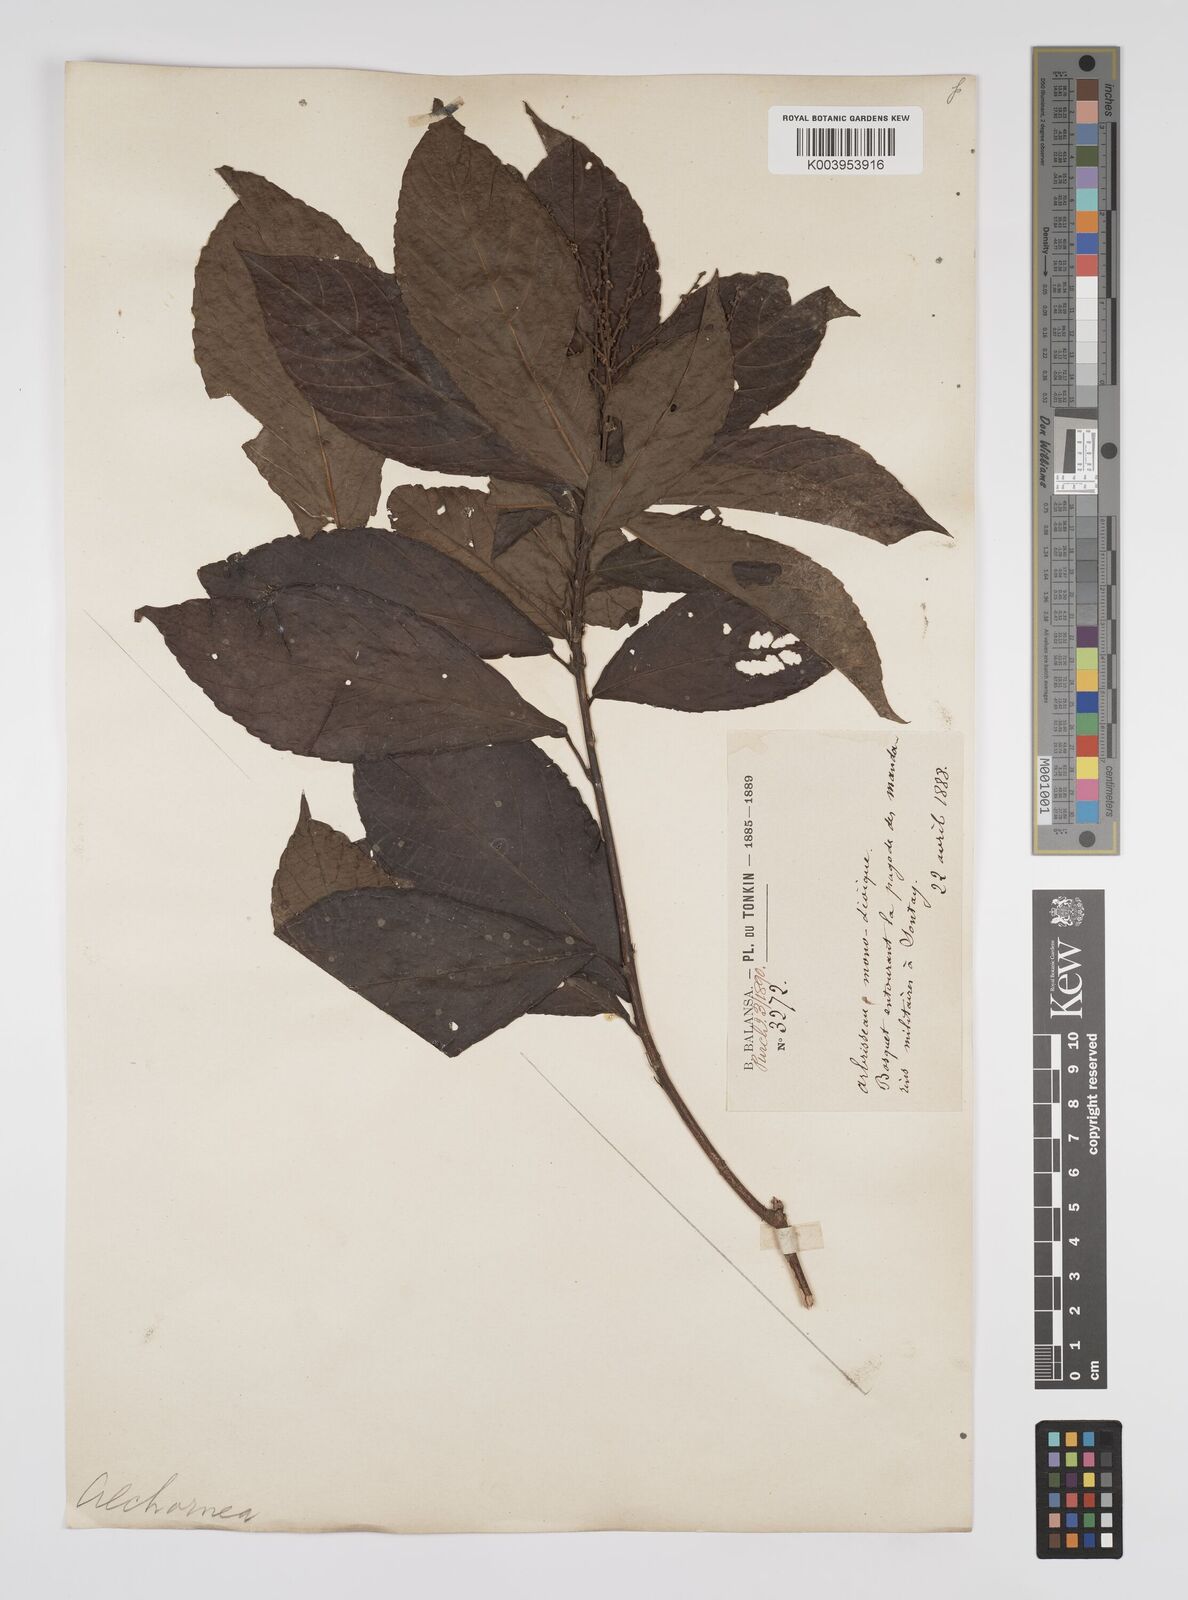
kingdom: Plantae
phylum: Tracheophyta
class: Magnoliopsida
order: Malpighiales
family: Euphorbiaceae
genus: Alchornea
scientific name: Alchornea rugosa
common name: Alchorntree
